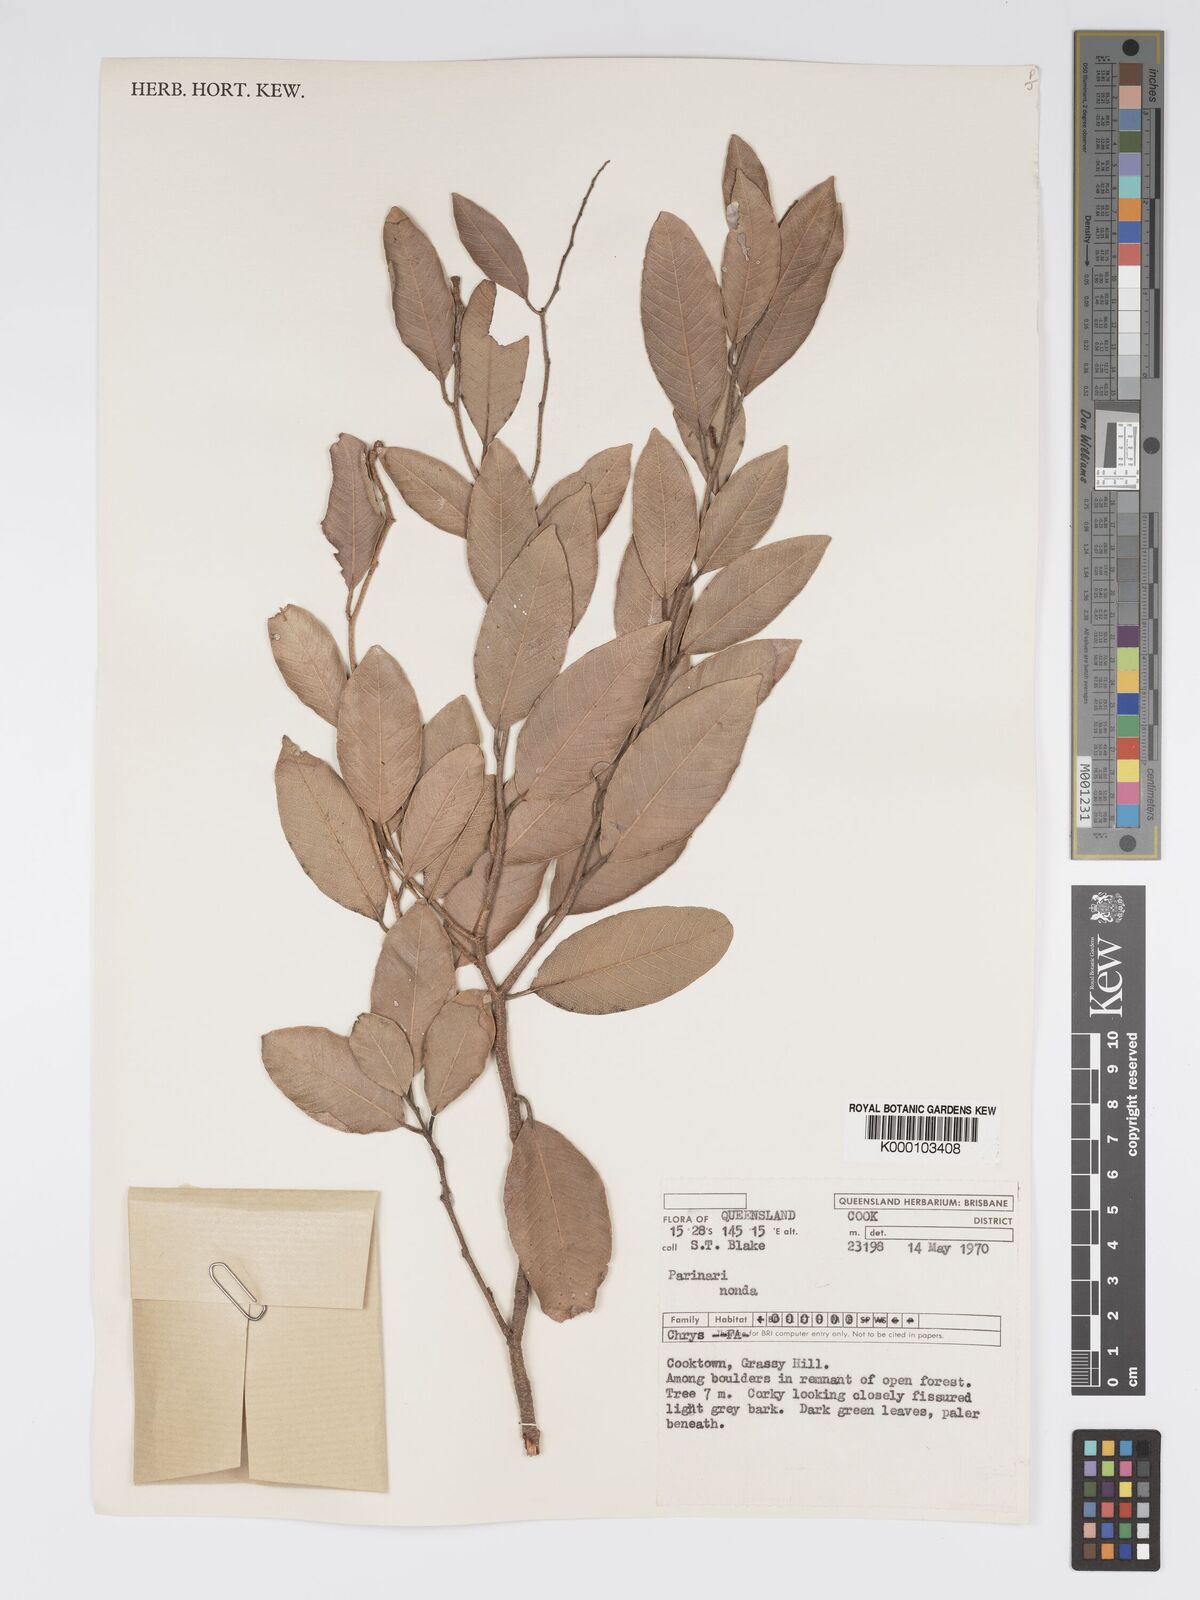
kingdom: Plantae
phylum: Tracheophyta
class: Magnoliopsida
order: Malpighiales
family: Chrysobalanaceae
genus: Parinari
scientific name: Parinari nonda
